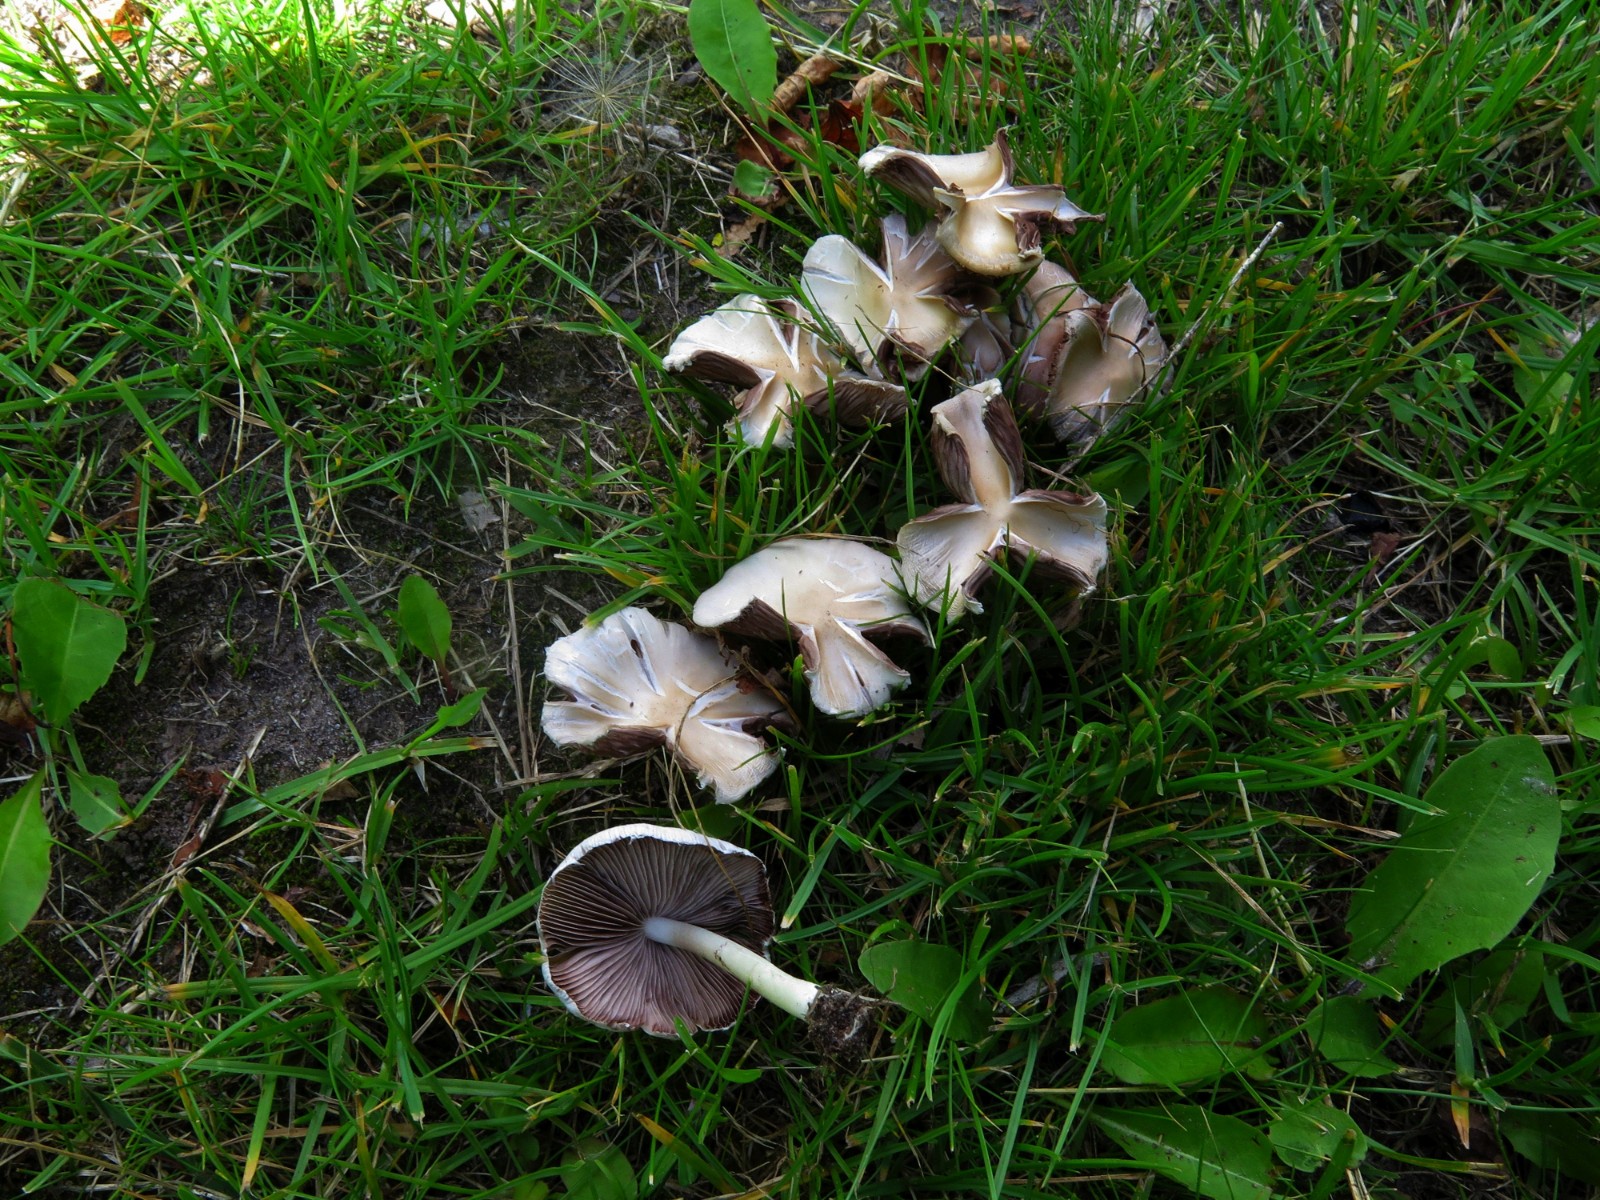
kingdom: Fungi
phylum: Basidiomycota
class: Agaricomycetes
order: Agaricales
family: Psathyrellaceae
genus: Candolleomyces
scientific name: Candolleomyces candolleanus
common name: Candolles mørkhat
